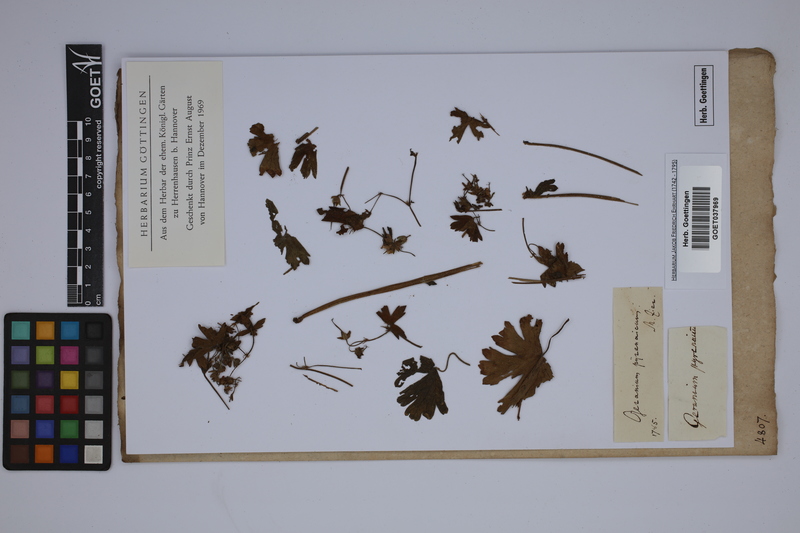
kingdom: Plantae
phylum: Tracheophyta
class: Magnoliopsida
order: Geraniales
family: Geraniaceae
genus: Geranium
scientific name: Geranium pyrenaicum
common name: Hedgerow crane's-bill
